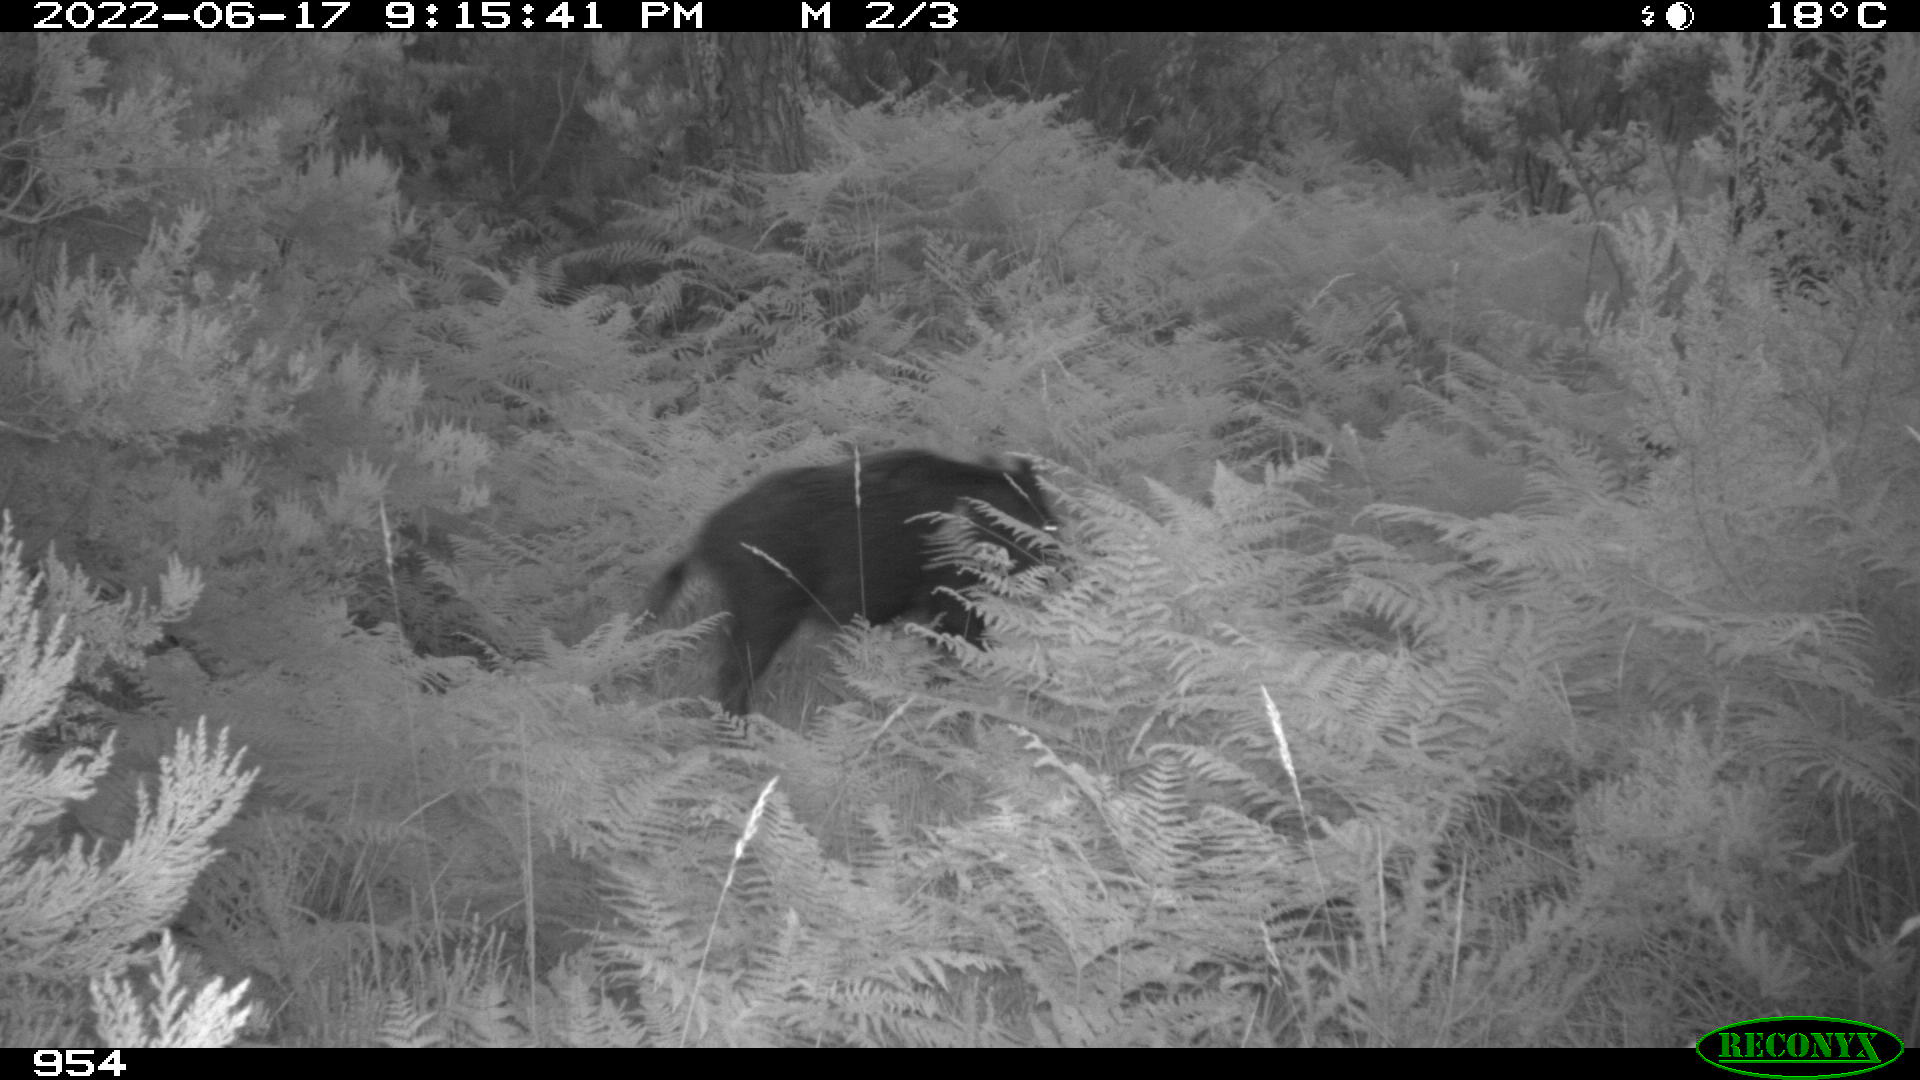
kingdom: Animalia
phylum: Chordata
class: Mammalia
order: Artiodactyla
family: Suidae
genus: Sus
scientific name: Sus scrofa
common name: Wild boar
